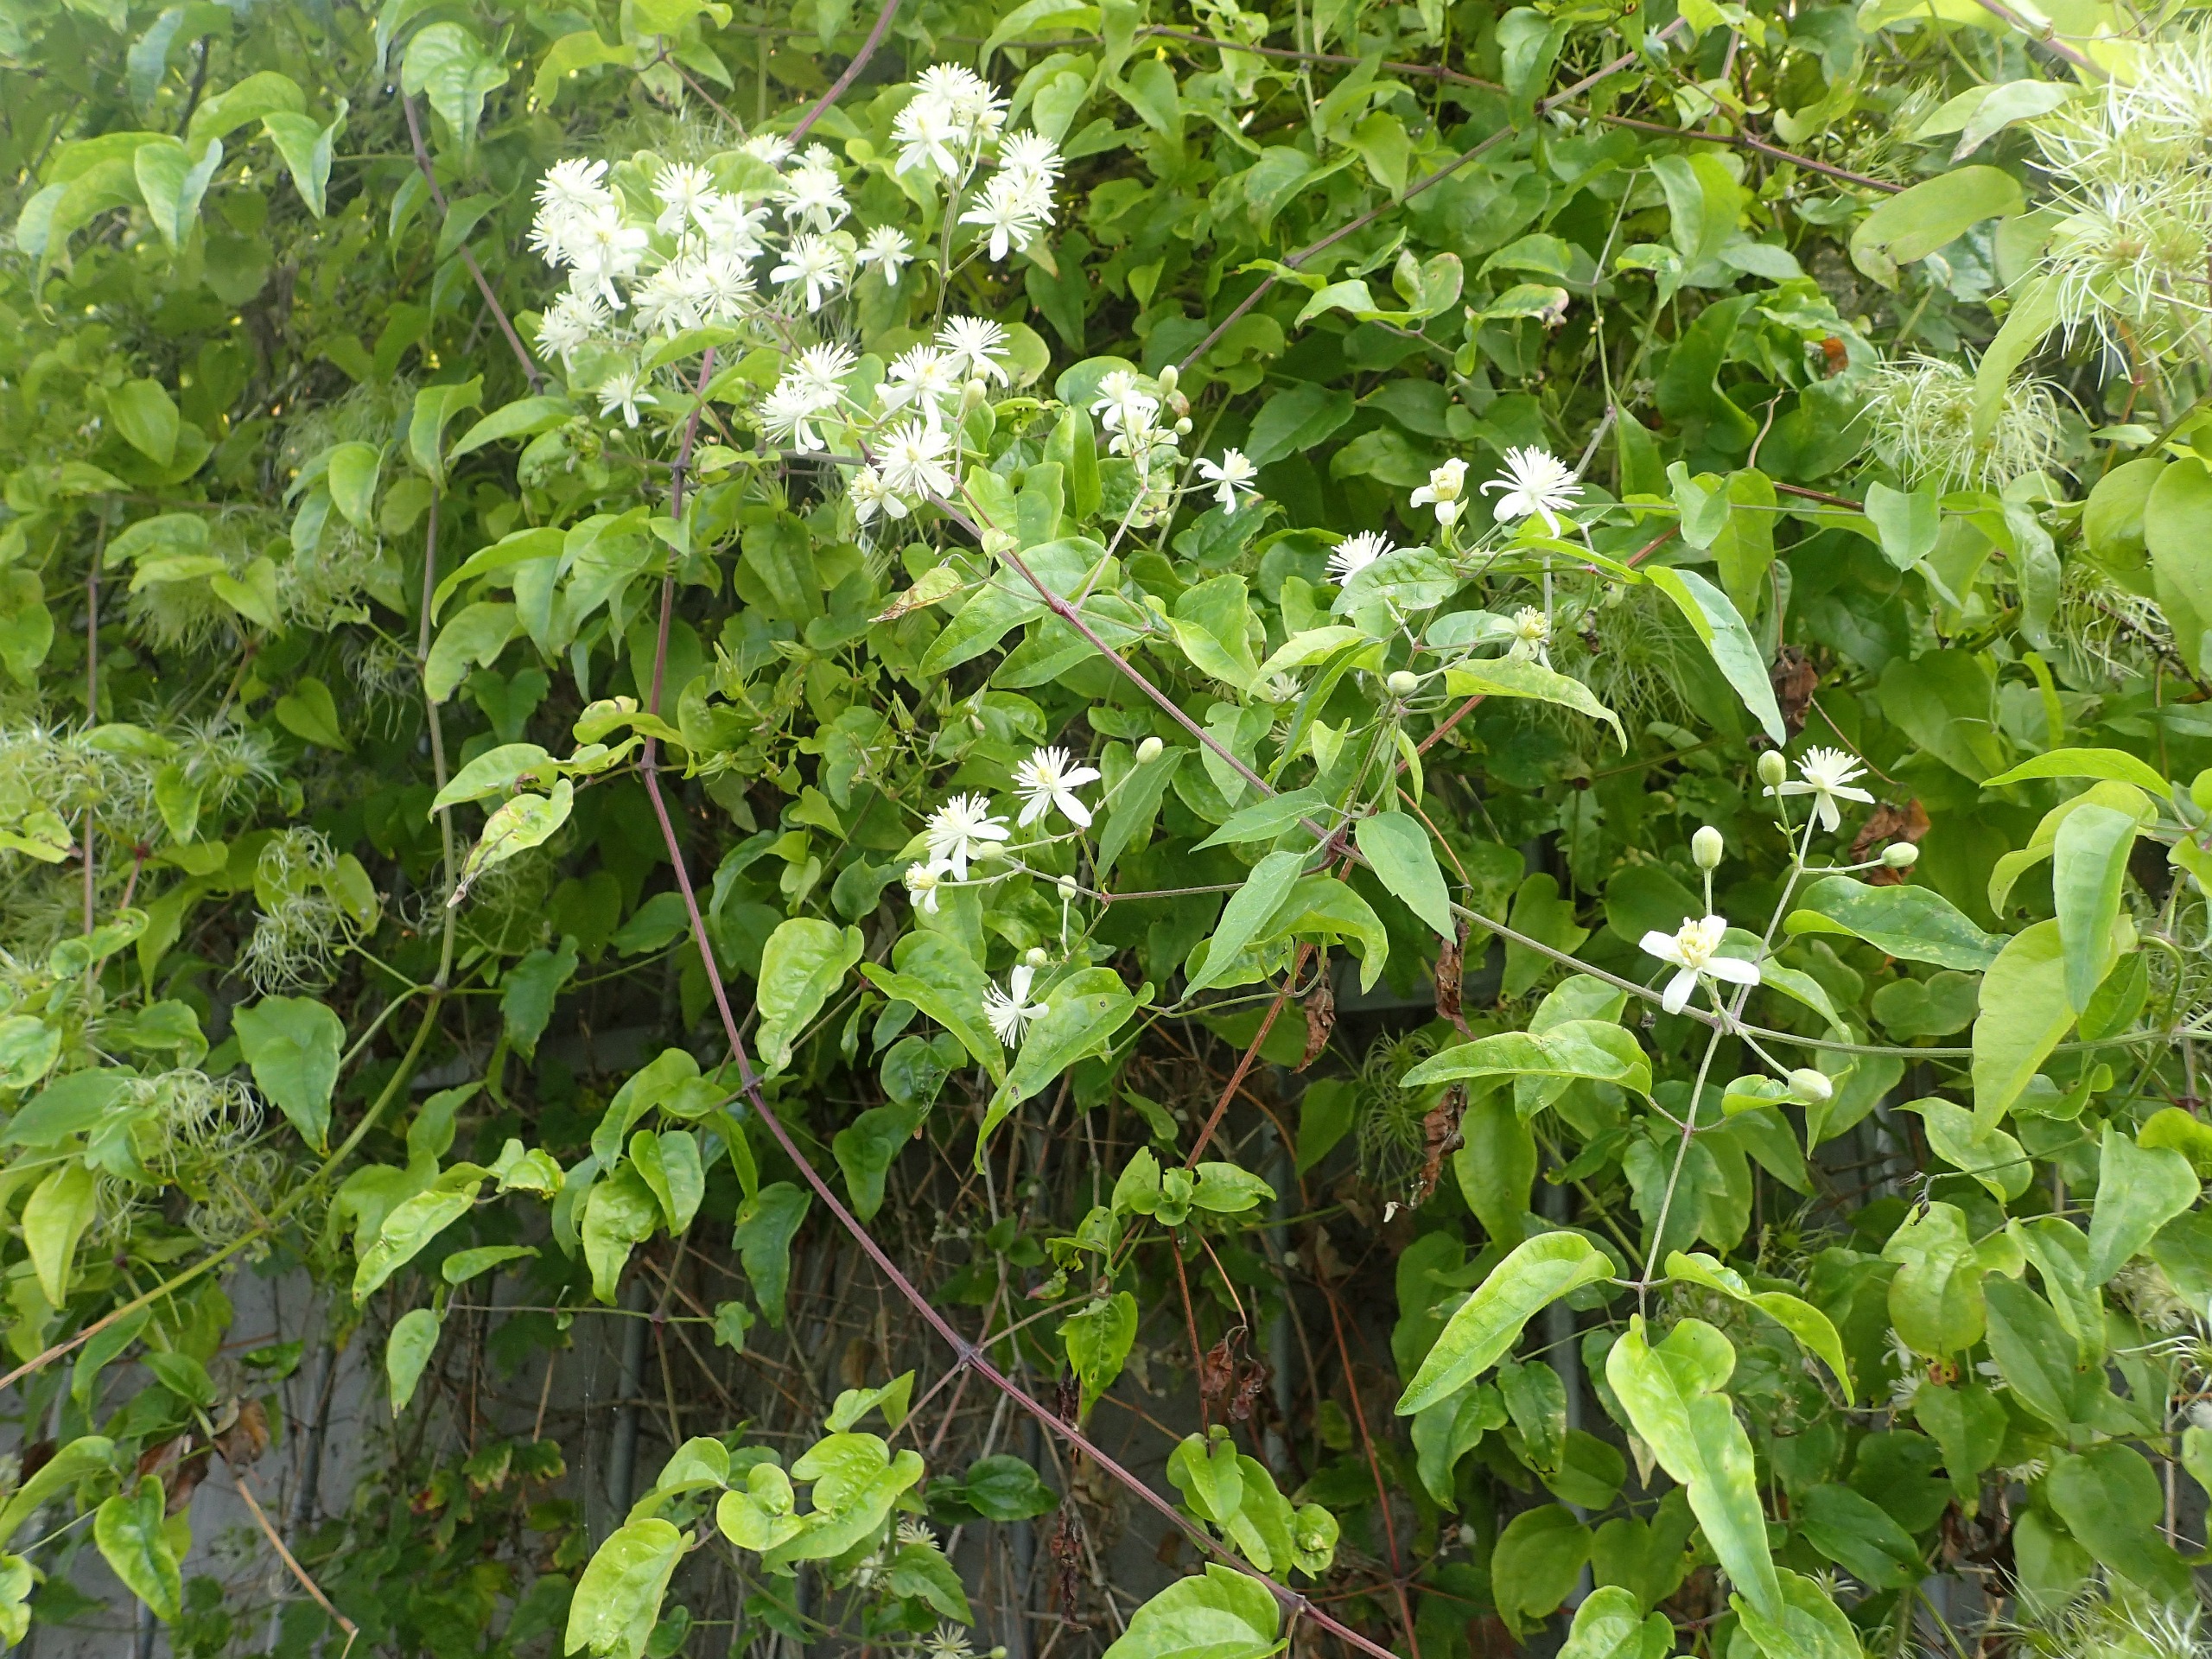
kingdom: Plantae
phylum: Tracheophyta
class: Magnoliopsida
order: Ranunculales
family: Ranunculaceae
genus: Clematis
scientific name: Clematis vitalba
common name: Skovranke
